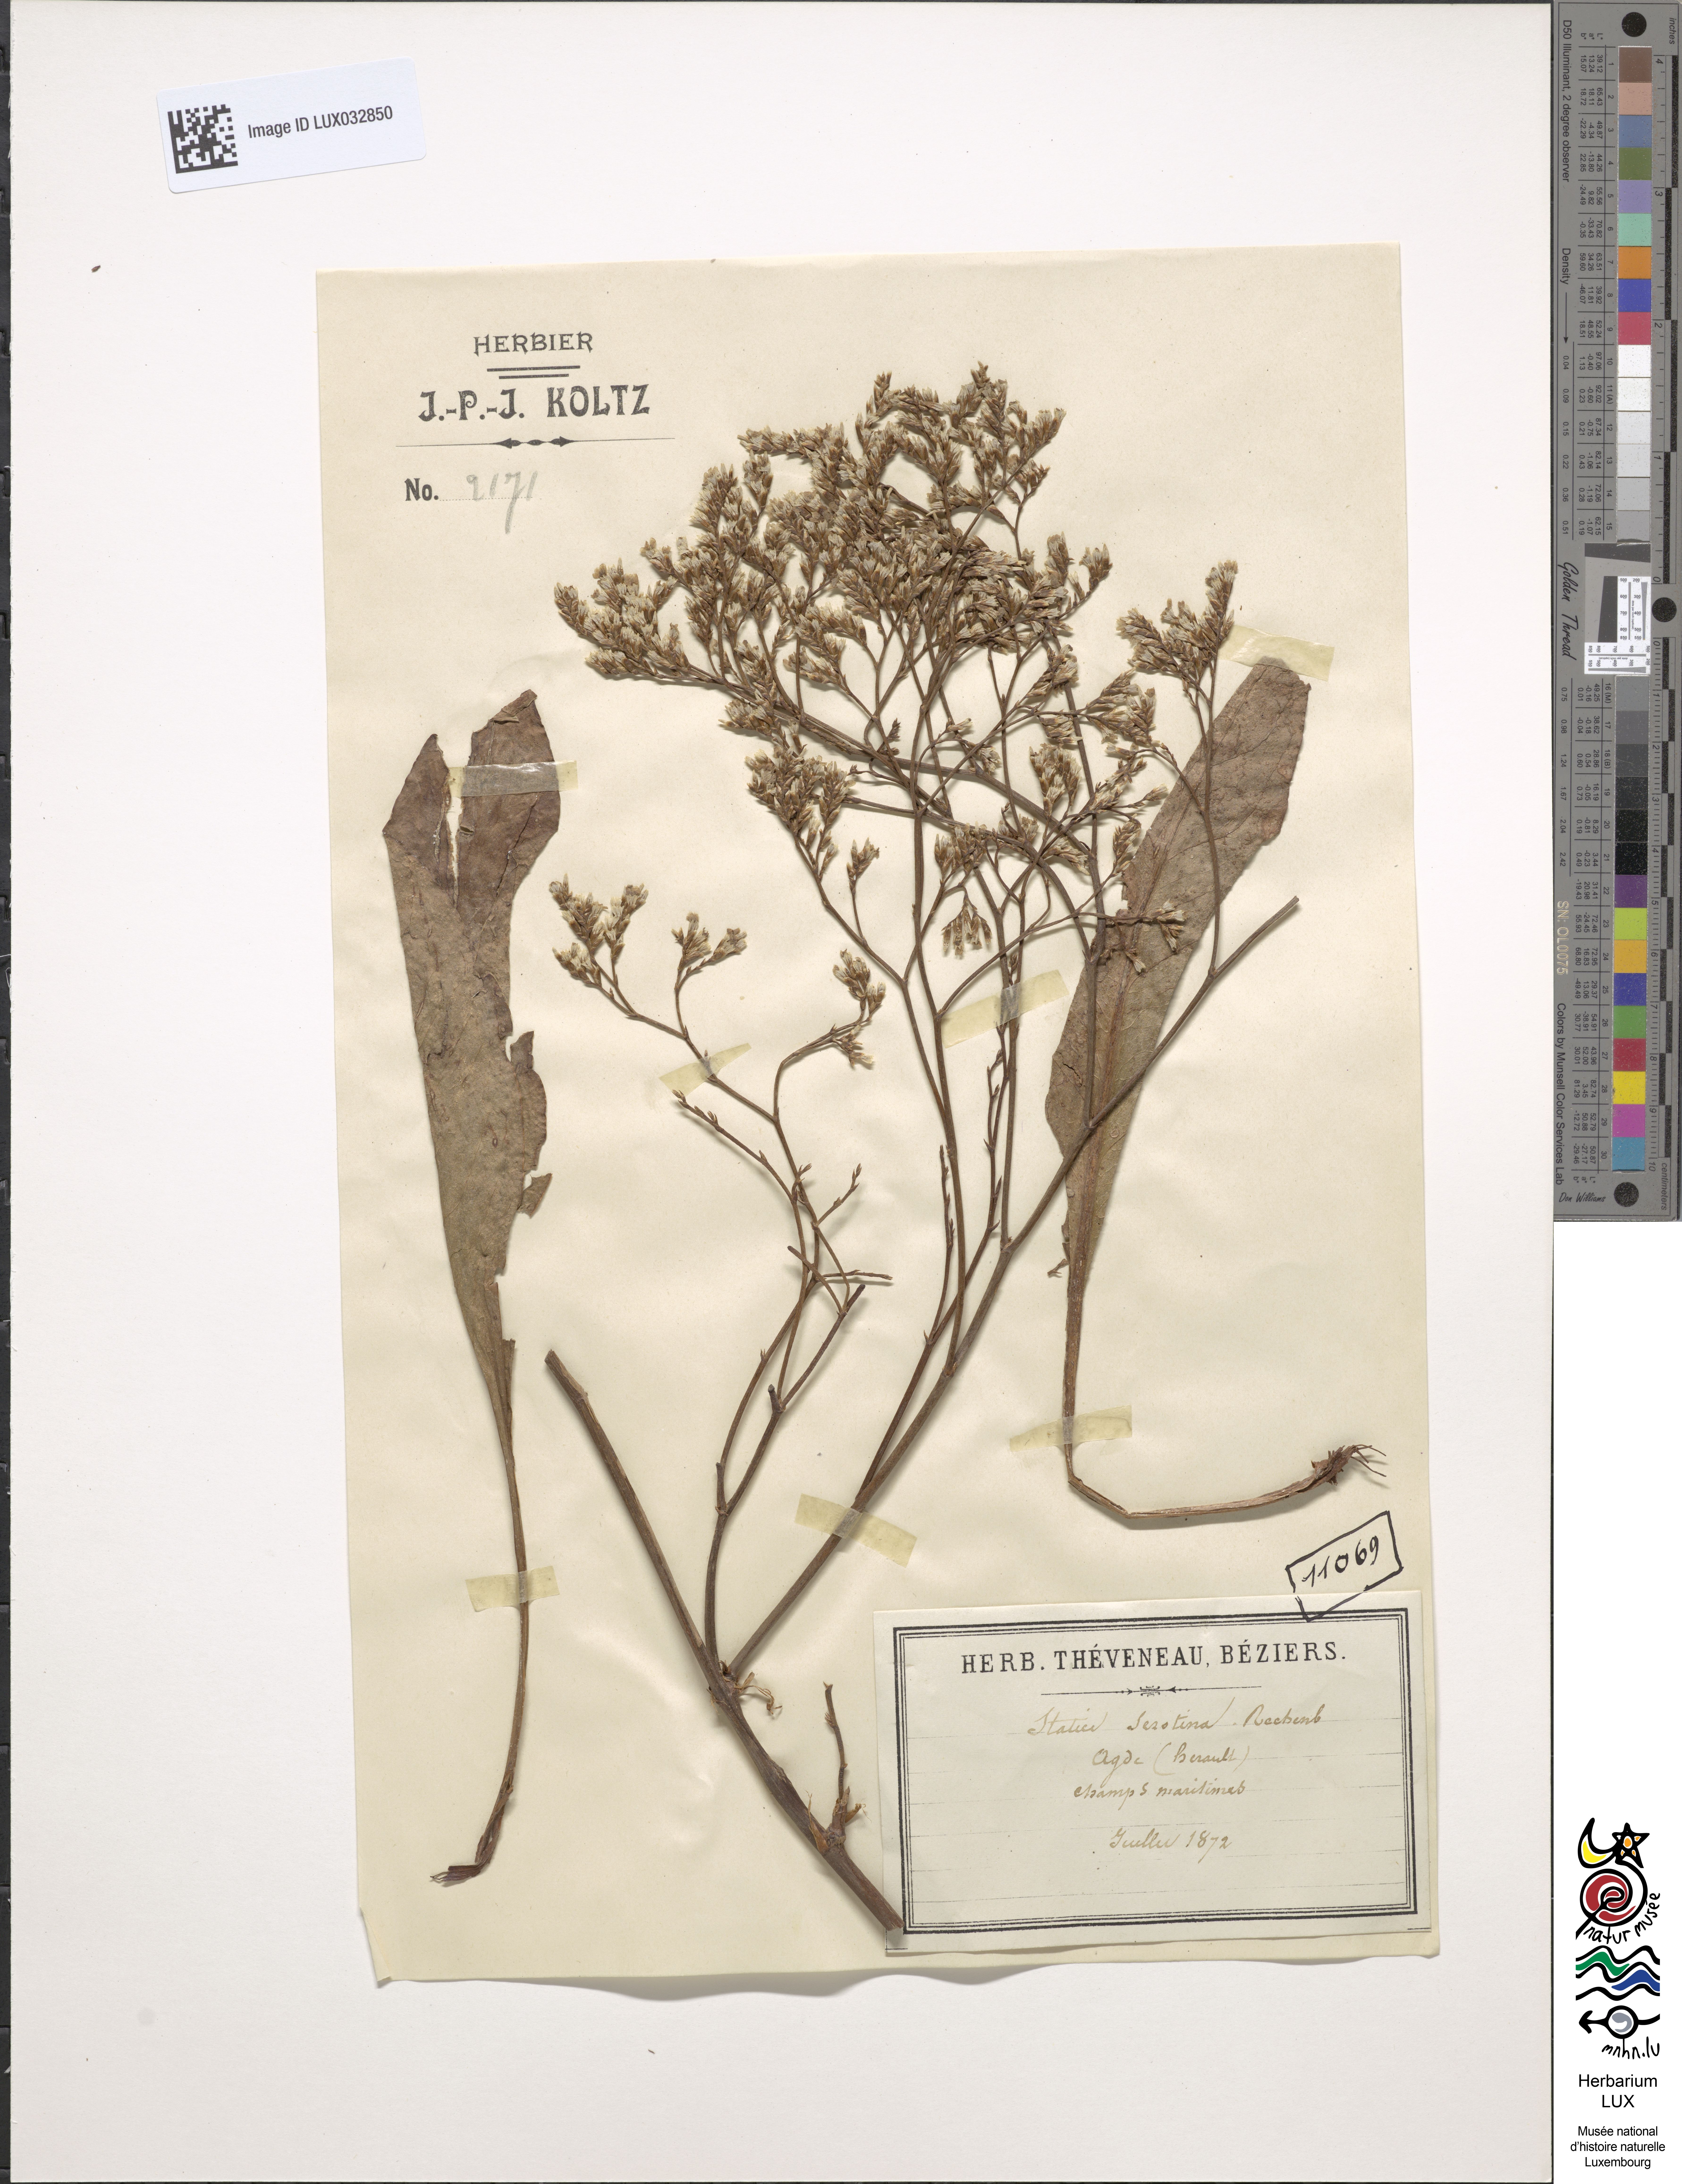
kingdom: Plantae
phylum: Tracheophyta
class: Magnoliopsida
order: Caryophyllales
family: Plumbaginaceae
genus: Limonium
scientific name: Limonium vulgare
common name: Common sea-lavender
